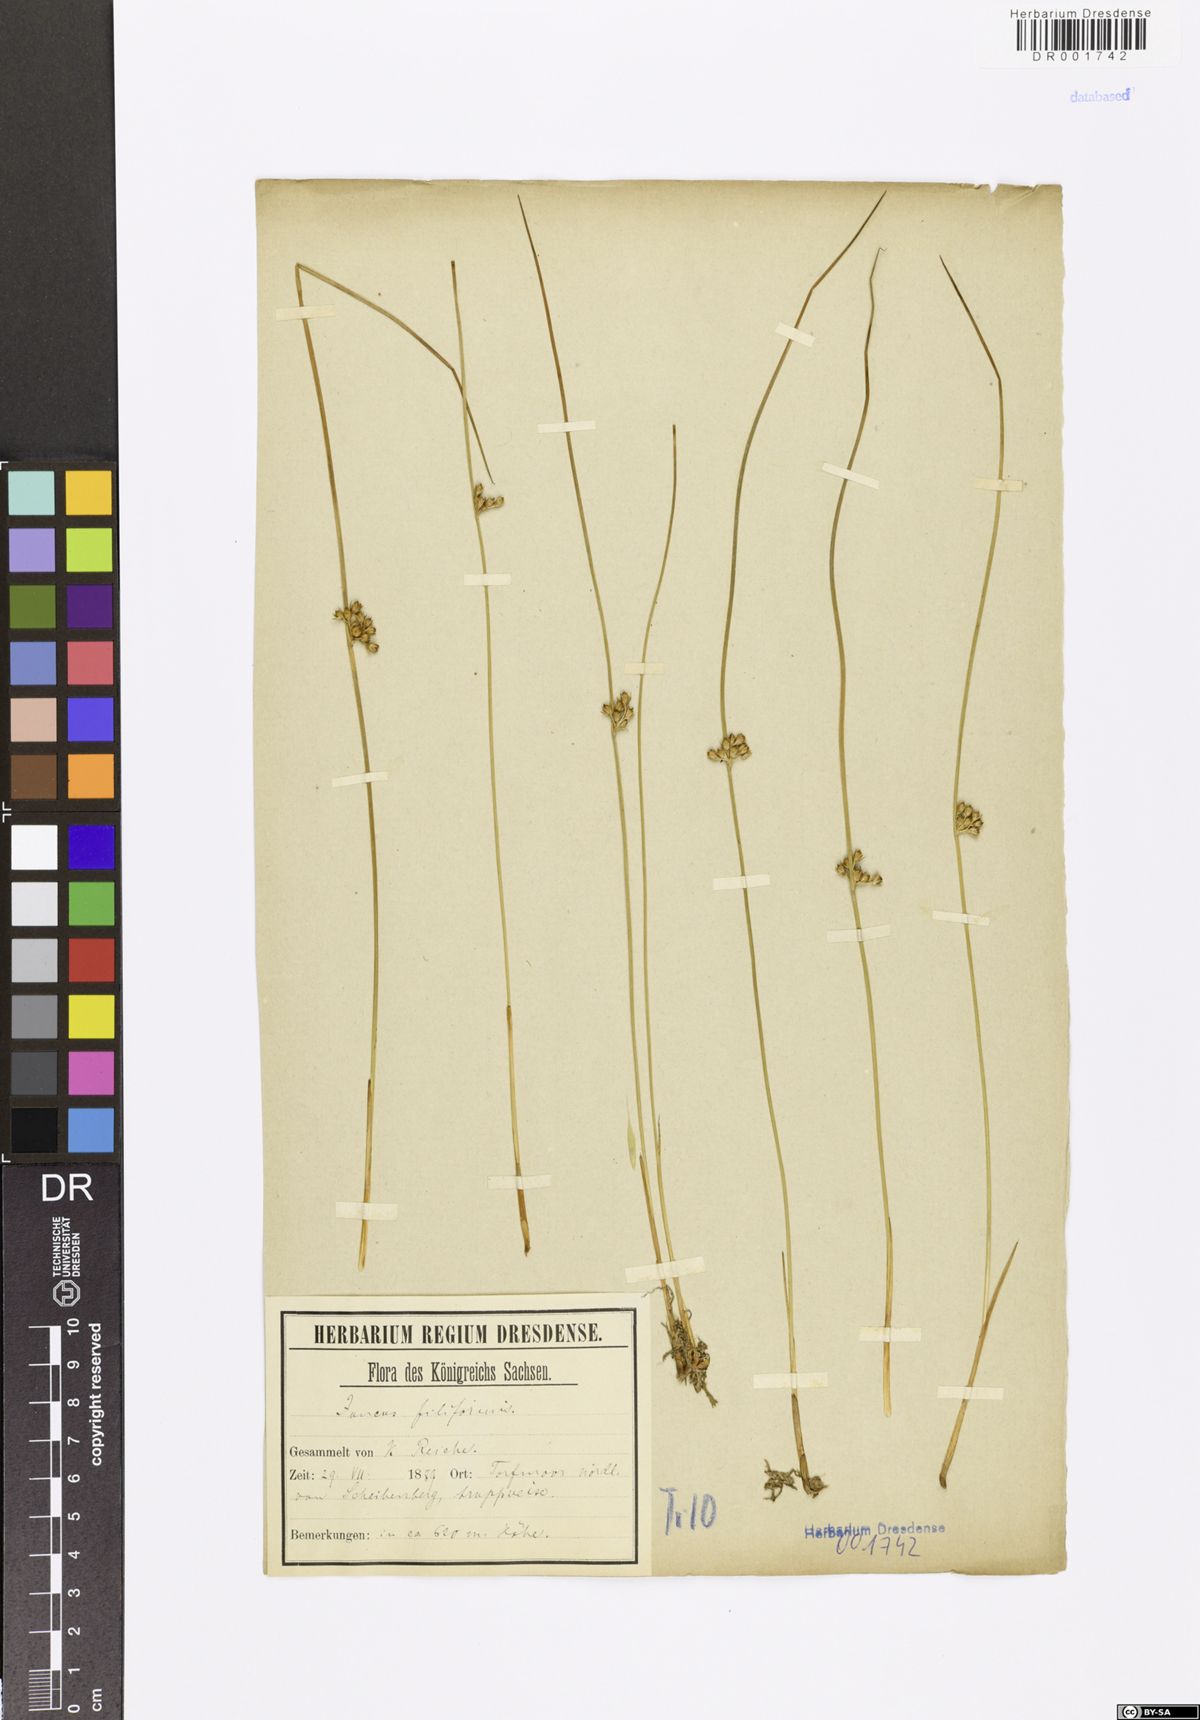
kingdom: Plantae
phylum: Tracheophyta
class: Liliopsida
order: Poales
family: Juncaceae
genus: Juncus
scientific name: Juncus inflexus
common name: Hard rush
